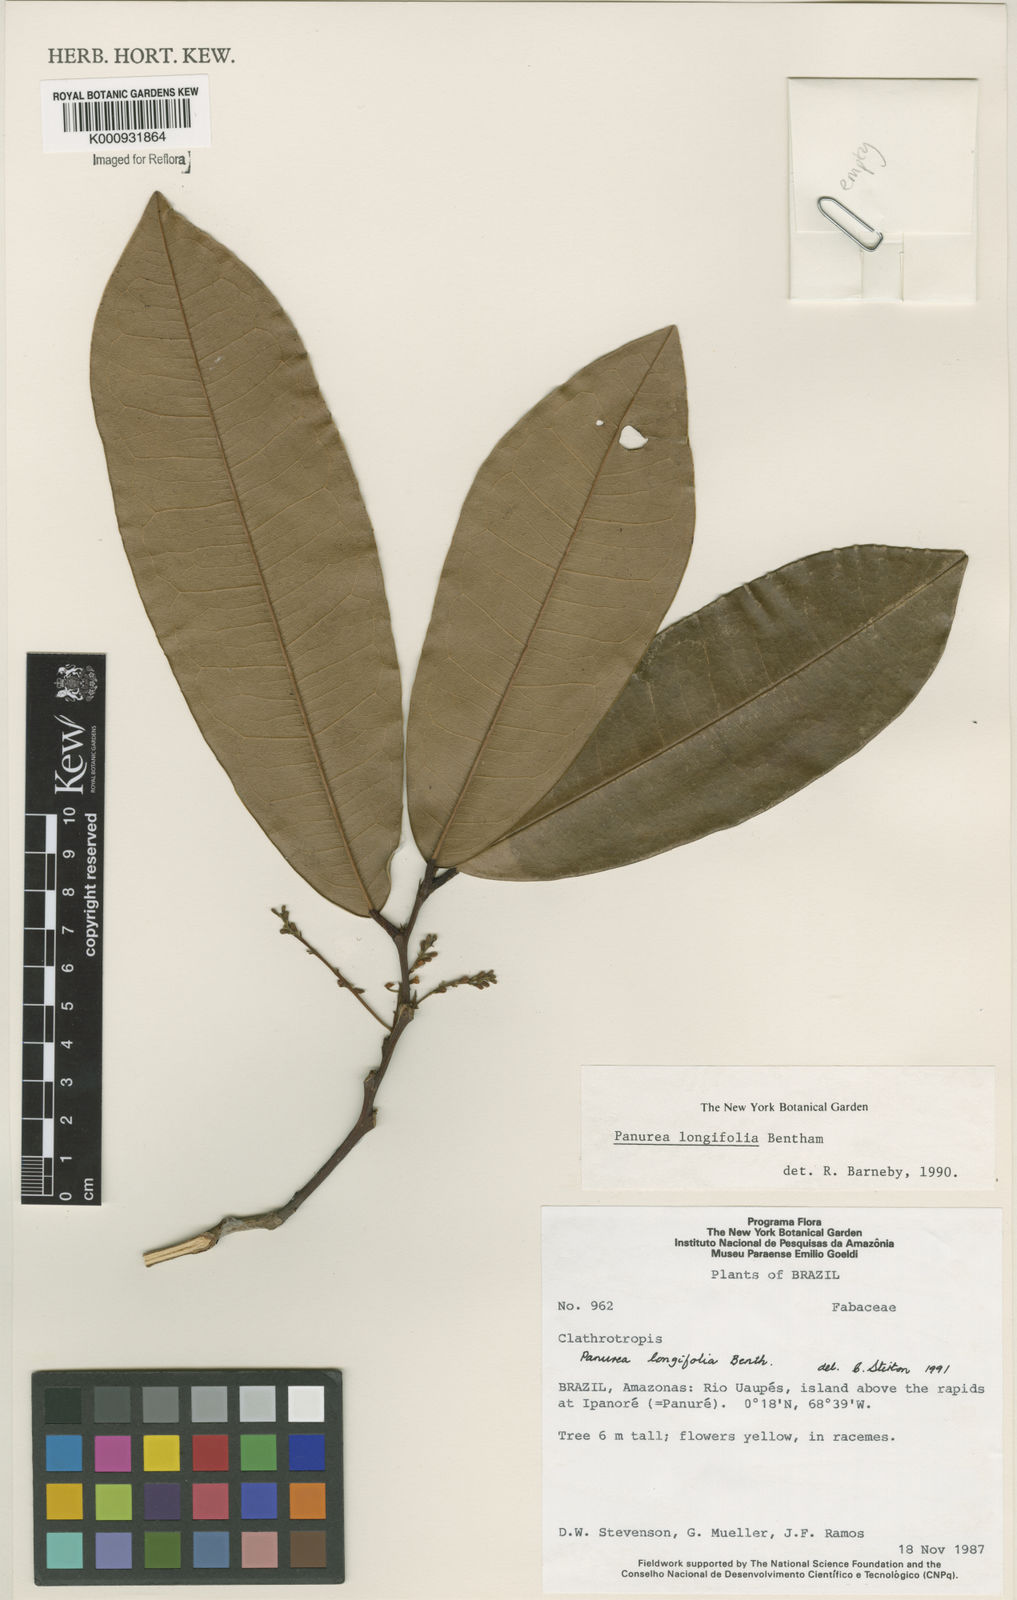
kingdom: Plantae
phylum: Tracheophyta
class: Magnoliopsida
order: Fabales
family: Fabaceae
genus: Panurea
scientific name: Panurea longifolia
